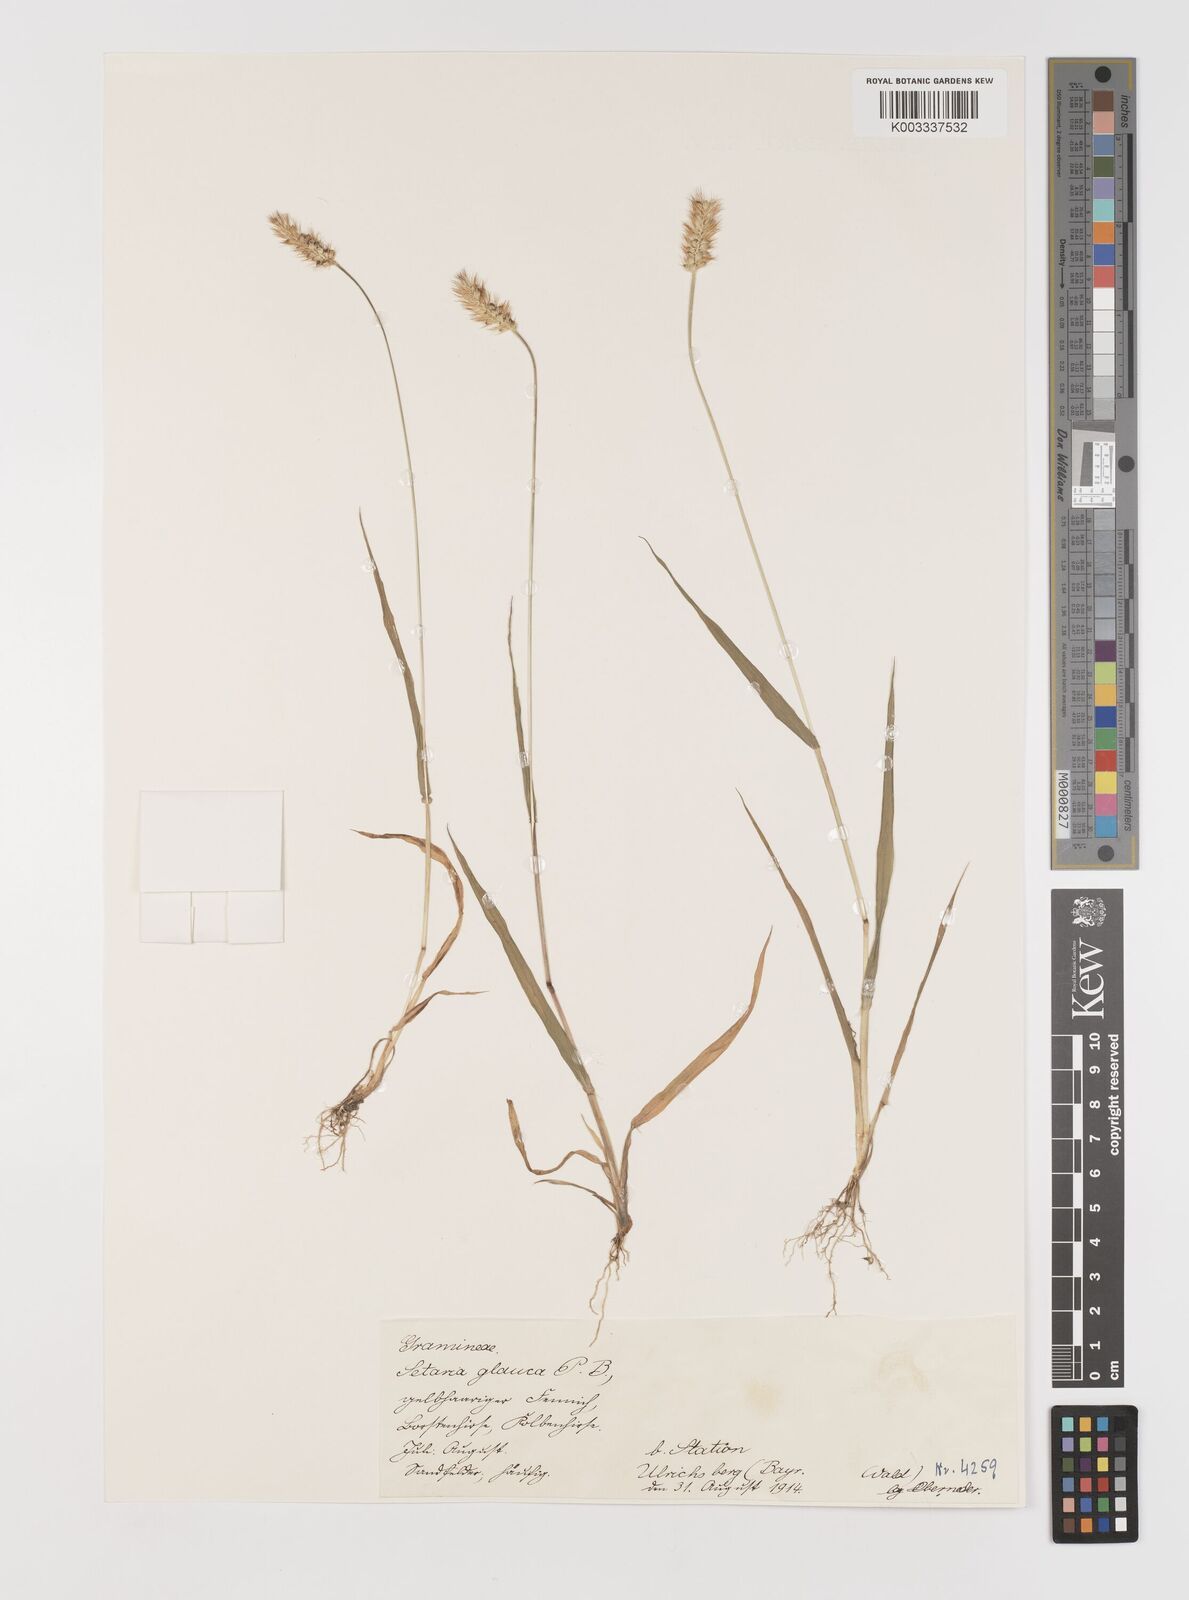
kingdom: Plantae
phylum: Tracheophyta
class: Liliopsida
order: Poales
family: Poaceae
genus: Setaria
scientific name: Setaria pumila
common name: Yellow bristle-grass
